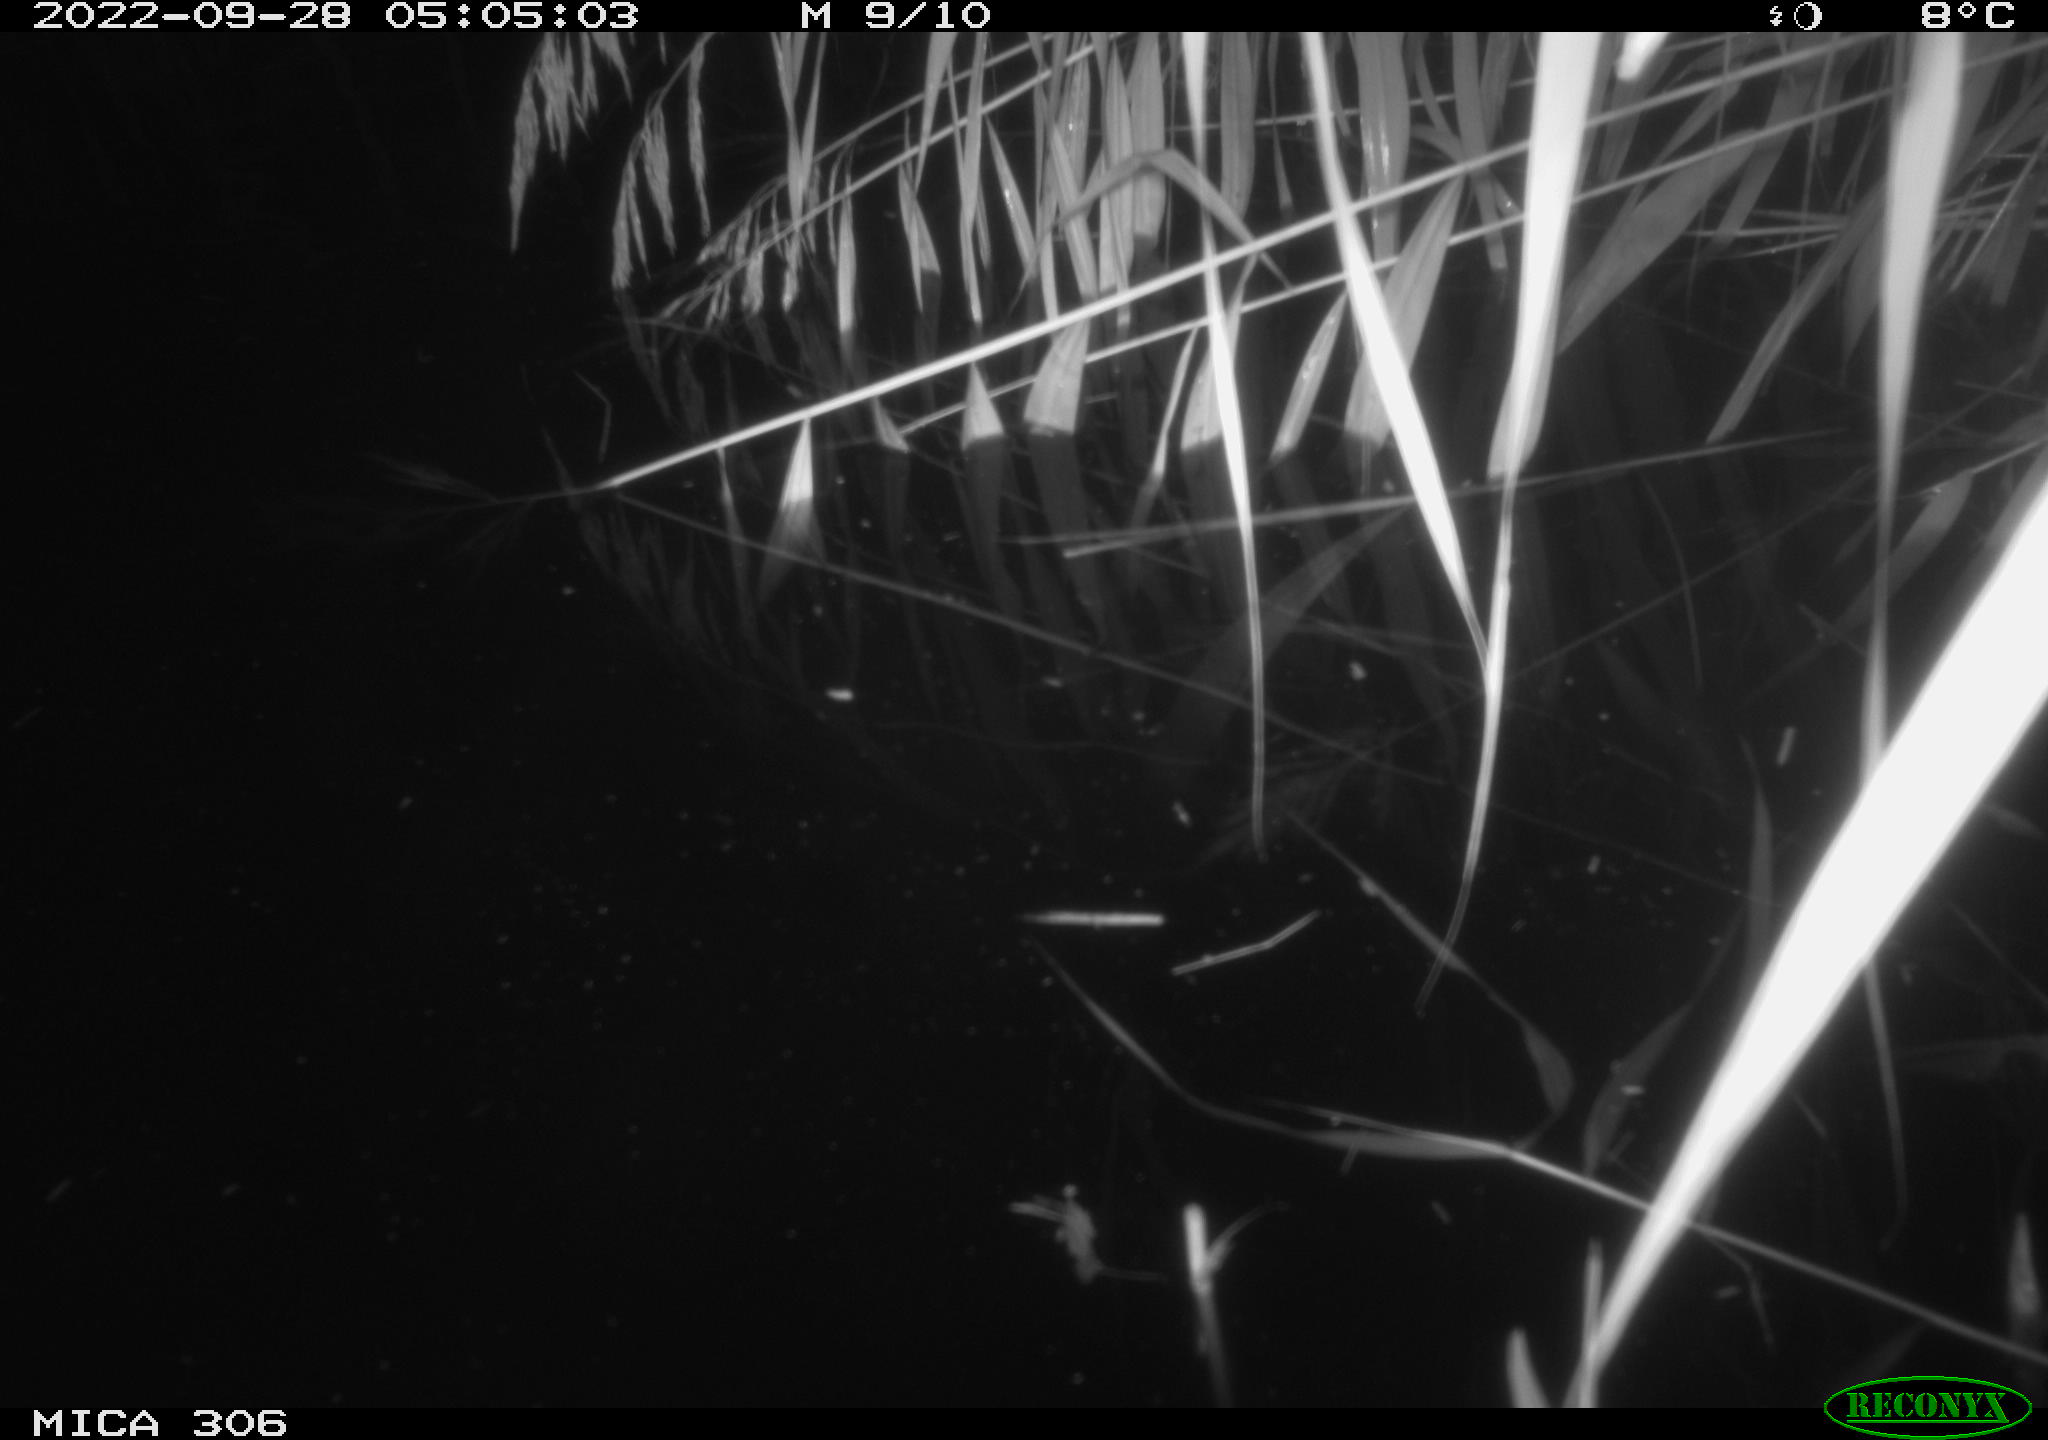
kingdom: Animalia
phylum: Chordata
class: Mammalia
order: Rodentia
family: Muridae
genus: Rattus
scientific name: Rattus norvegicus
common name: Brown rat
